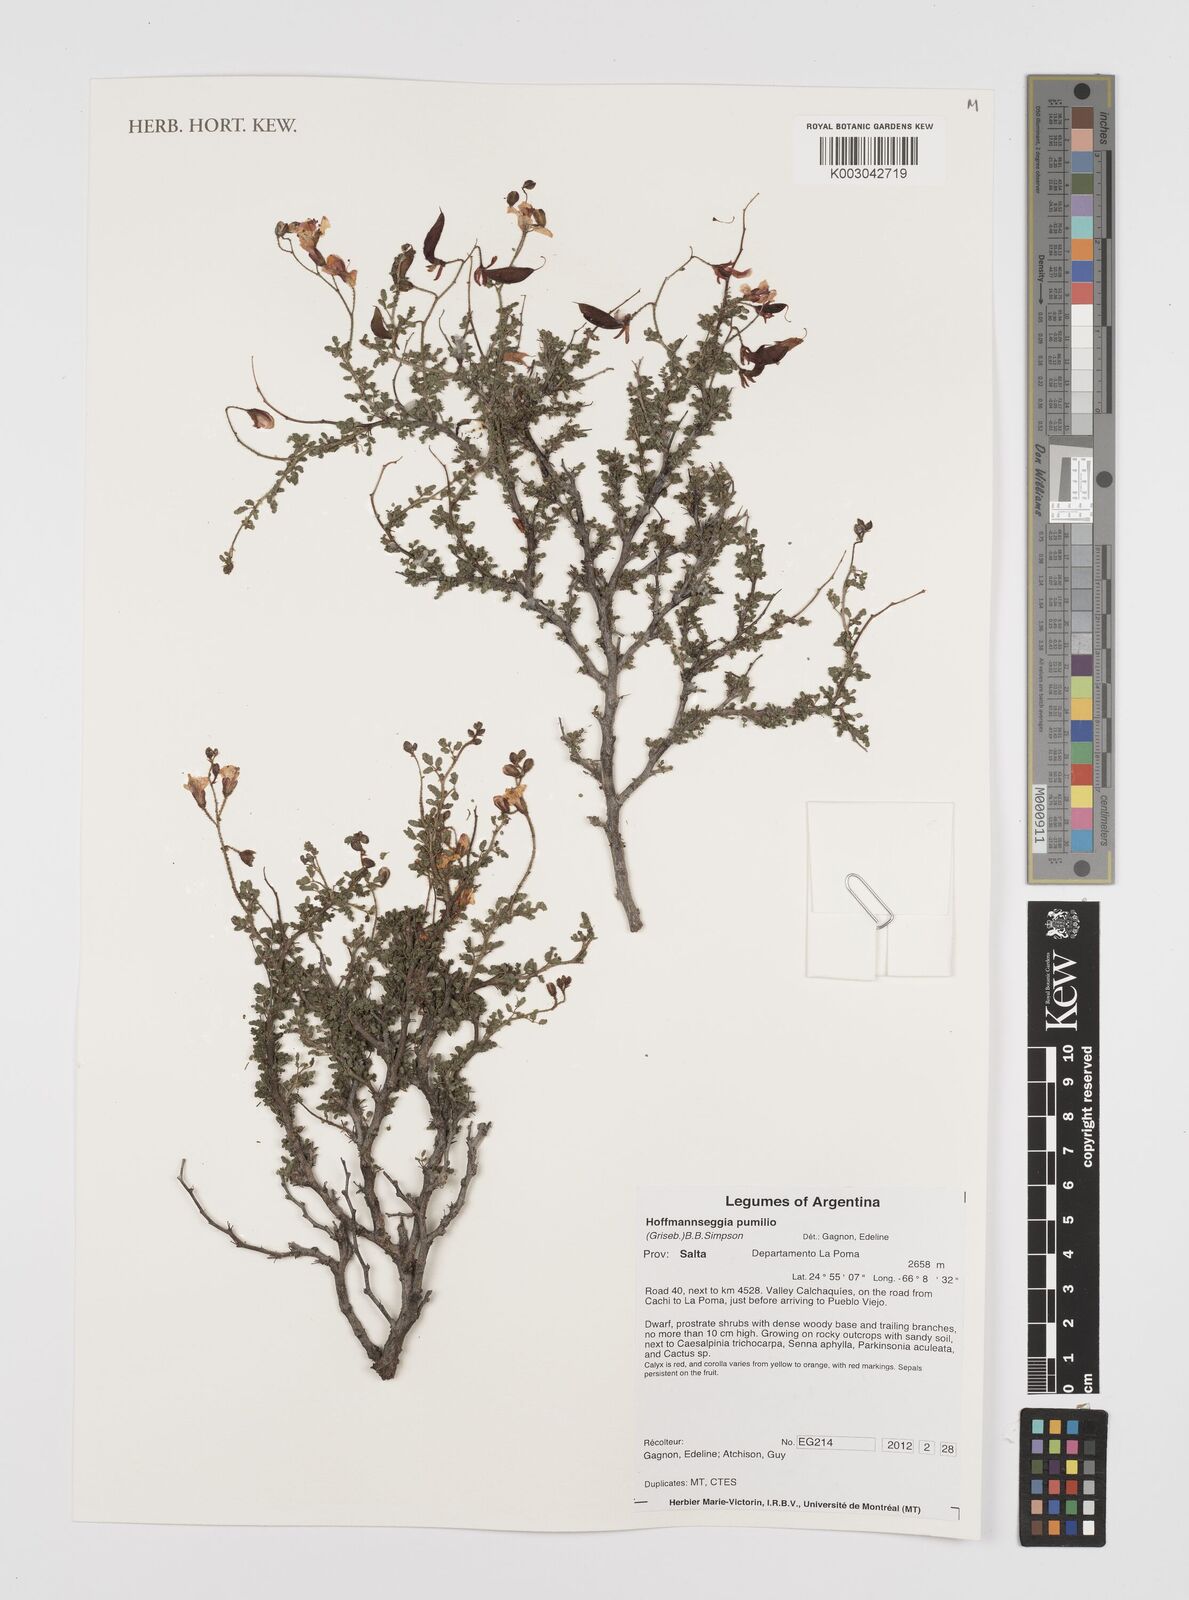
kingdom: Plantae
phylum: Tracheophyta
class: Magnoliopsida
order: Fabales
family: Fabaceae
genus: Hoffmannseggia
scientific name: Hoffmannseggia pumilio
